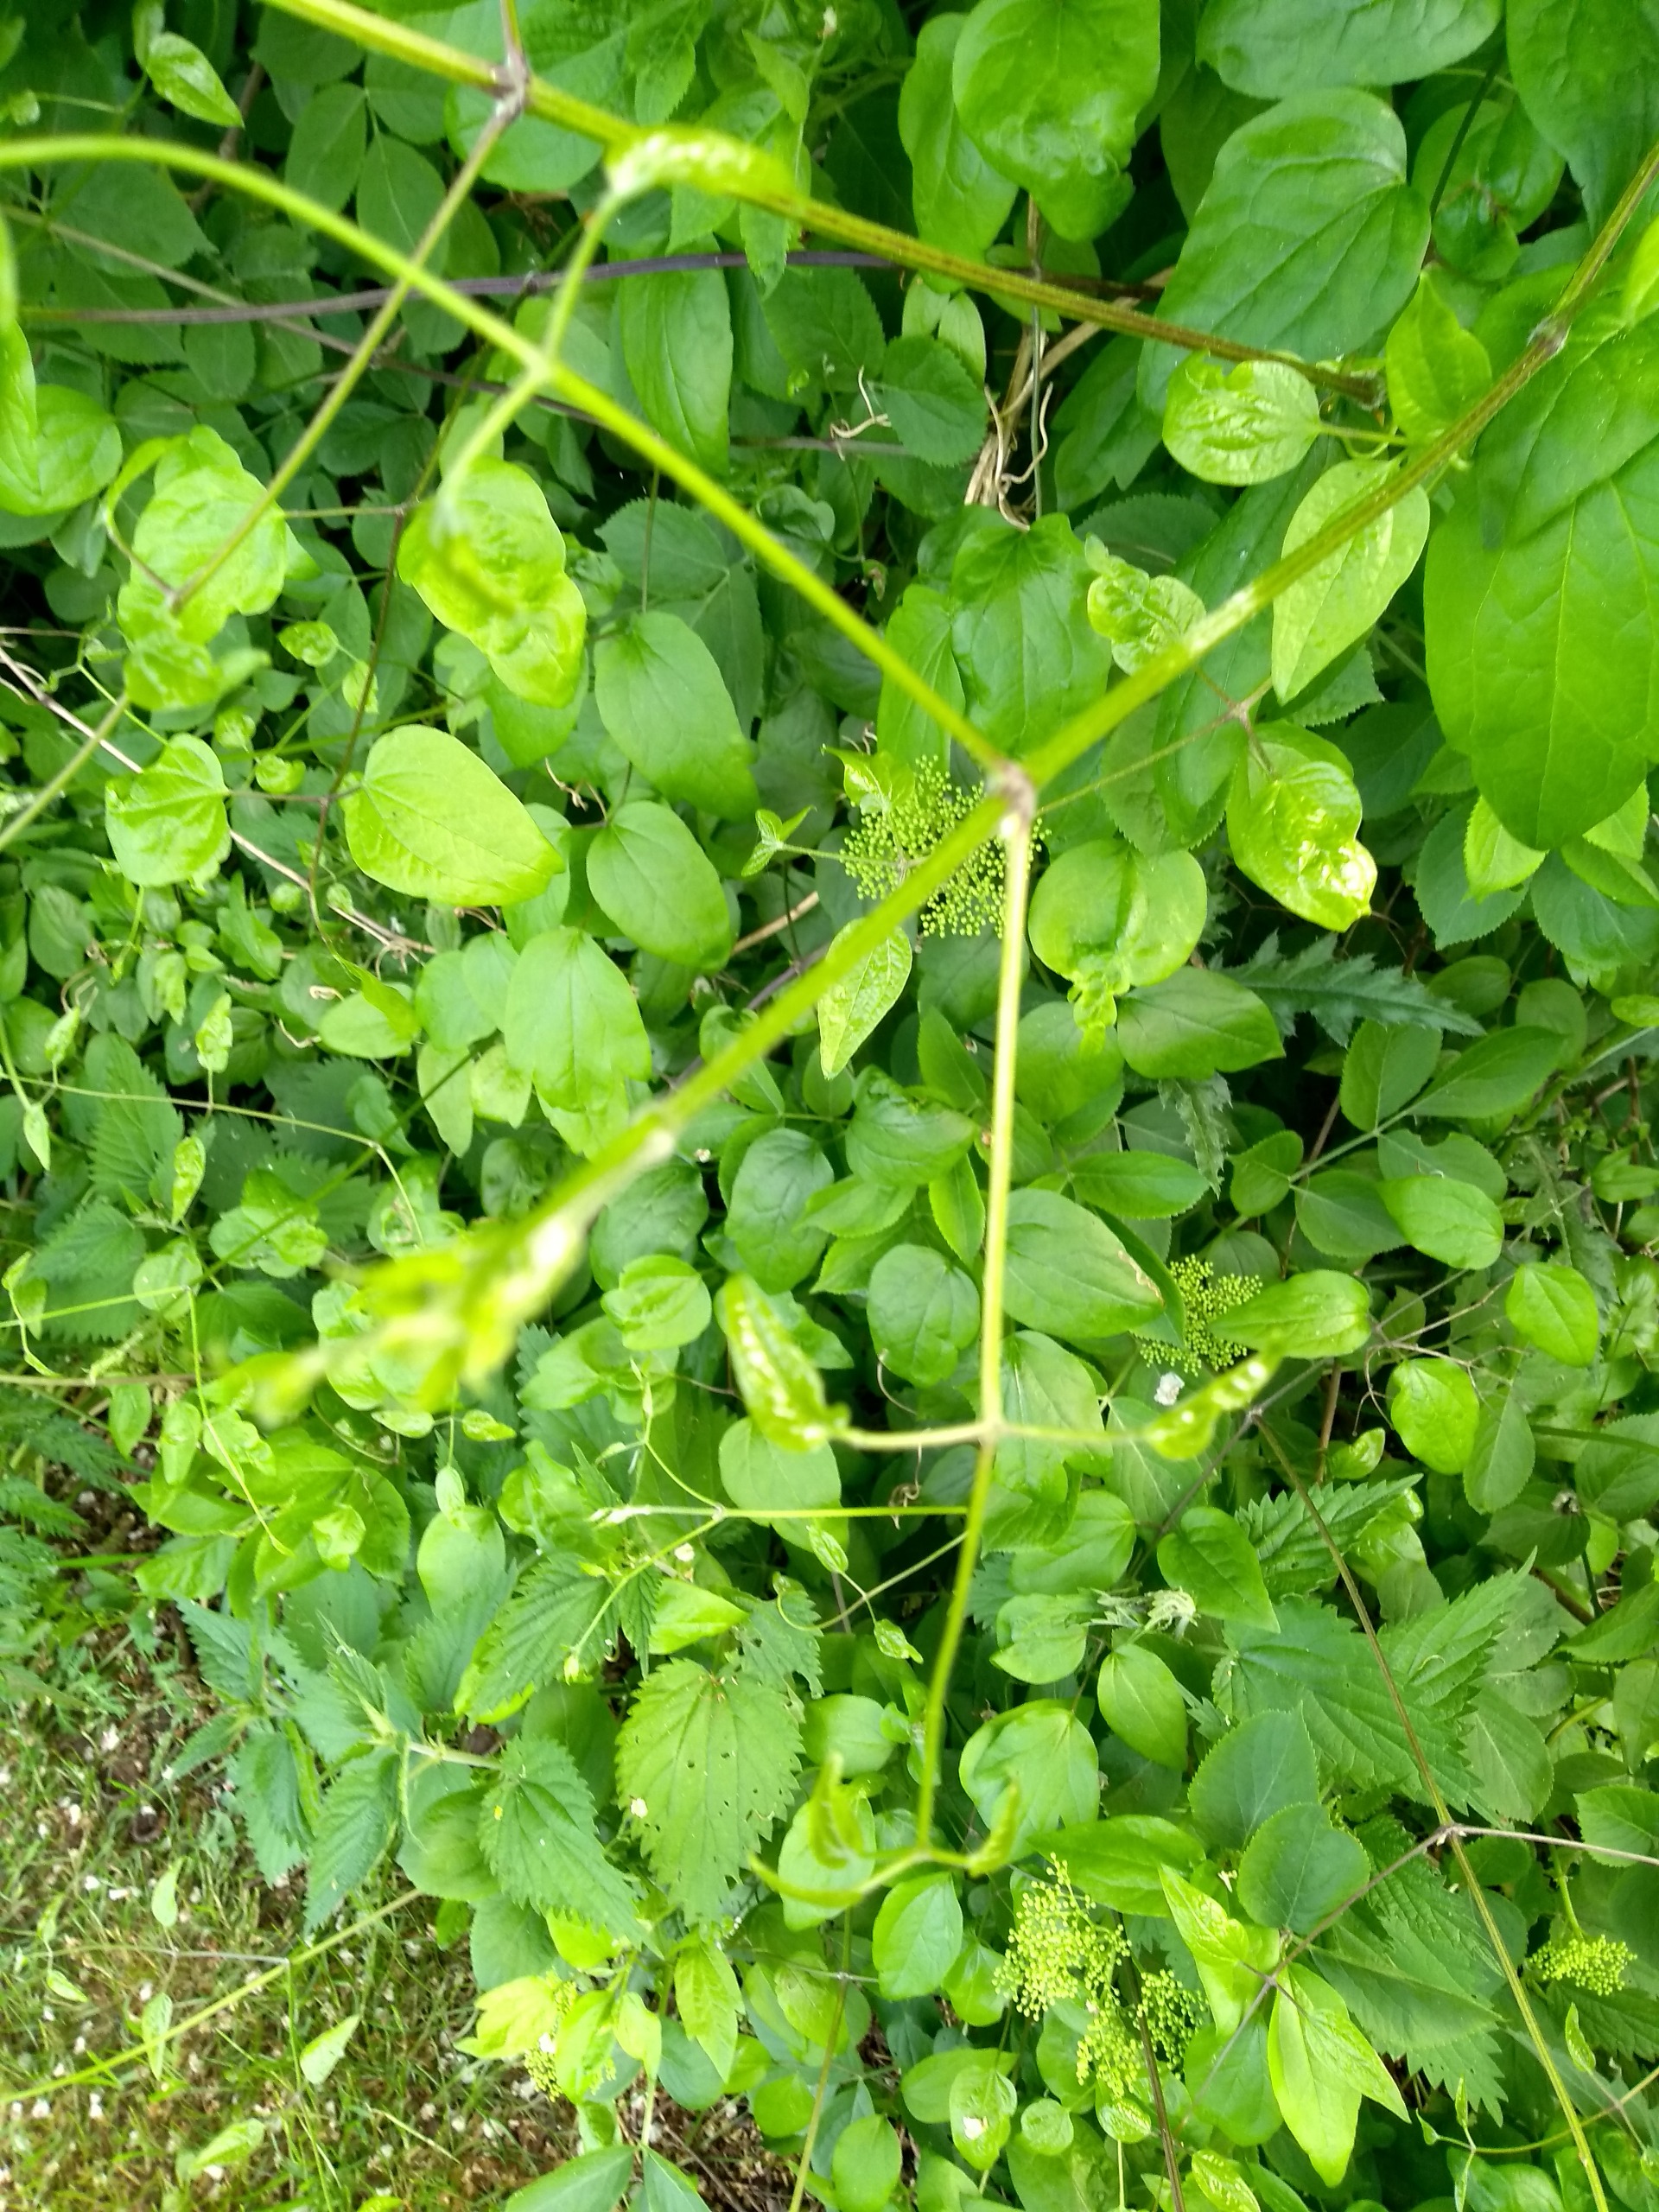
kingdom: Plantae
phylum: Tracheophyta
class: Magnoliopsida
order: Ranunculales
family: Ranunculaceae
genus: Clematis
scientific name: Clematis vitalba
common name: Skovranke
